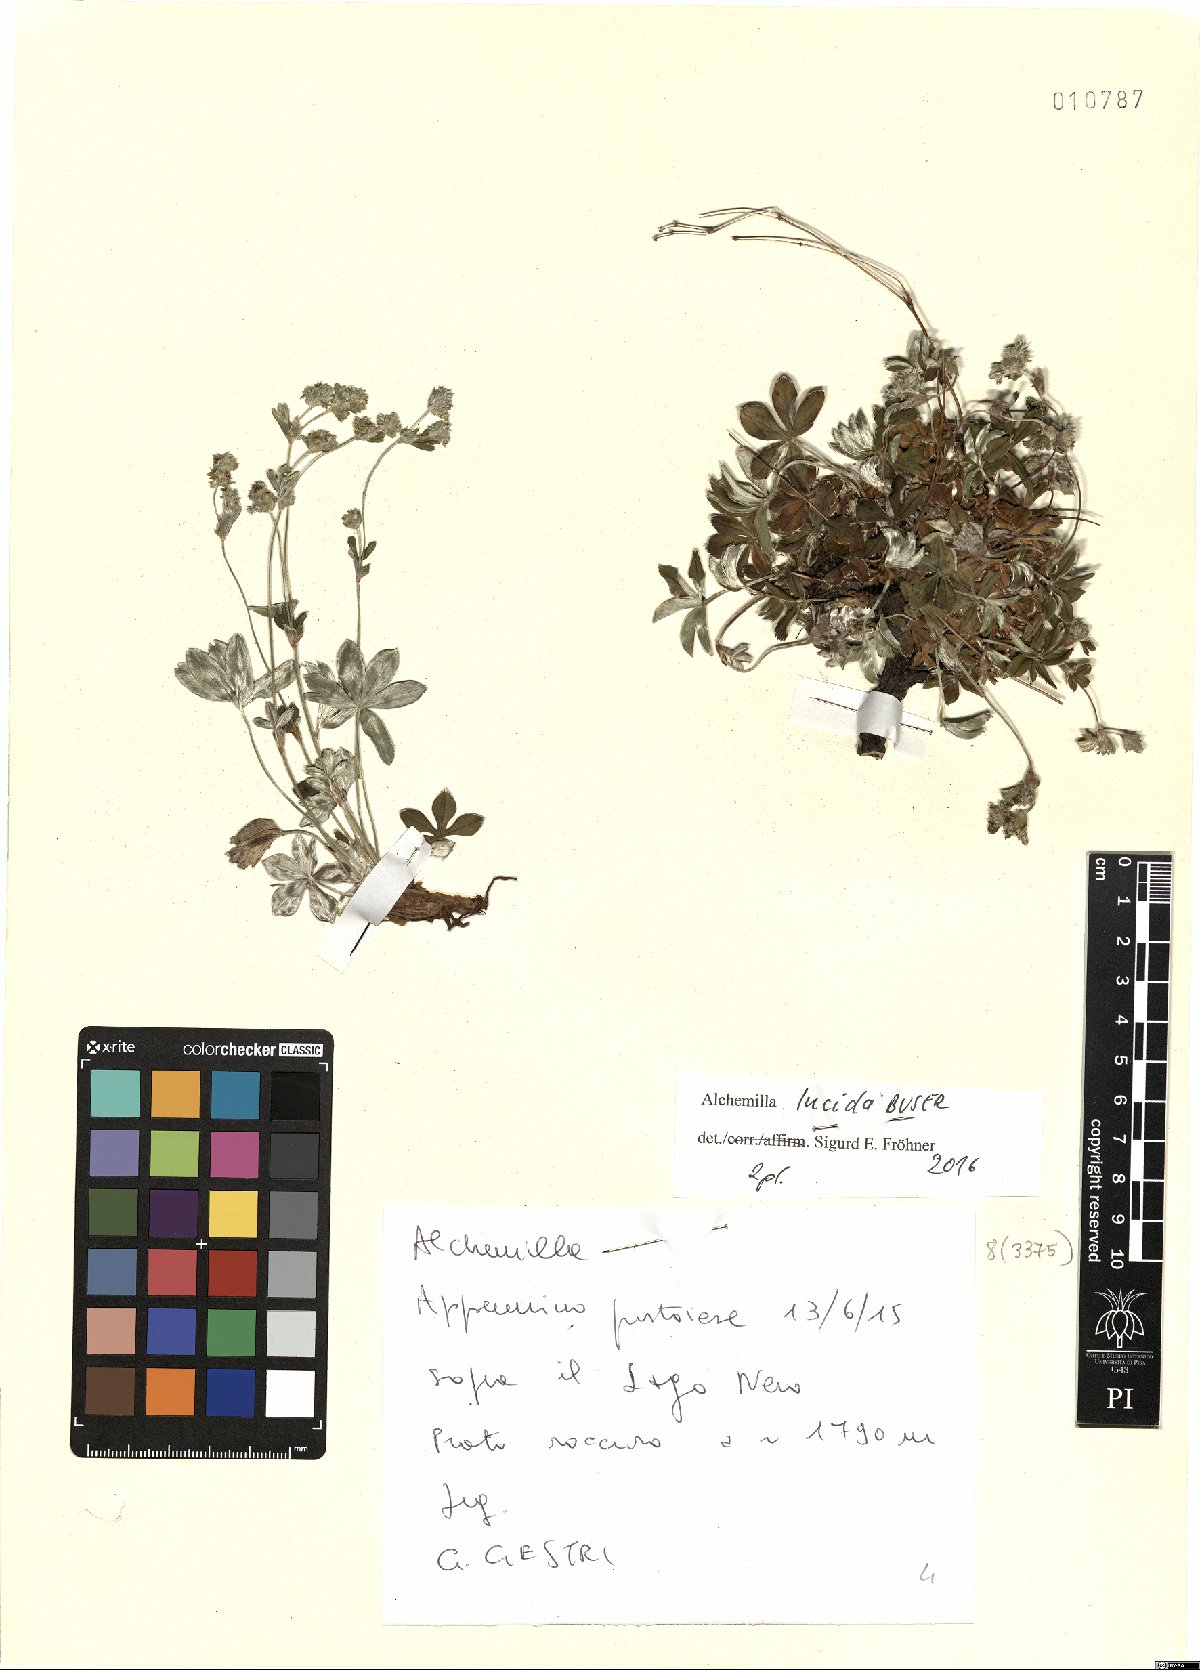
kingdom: Plantae
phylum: Tracheophyta
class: Magnoliopsida
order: Rosales
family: Rosaceae
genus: Alchemilla
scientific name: Alchemilla lucida
